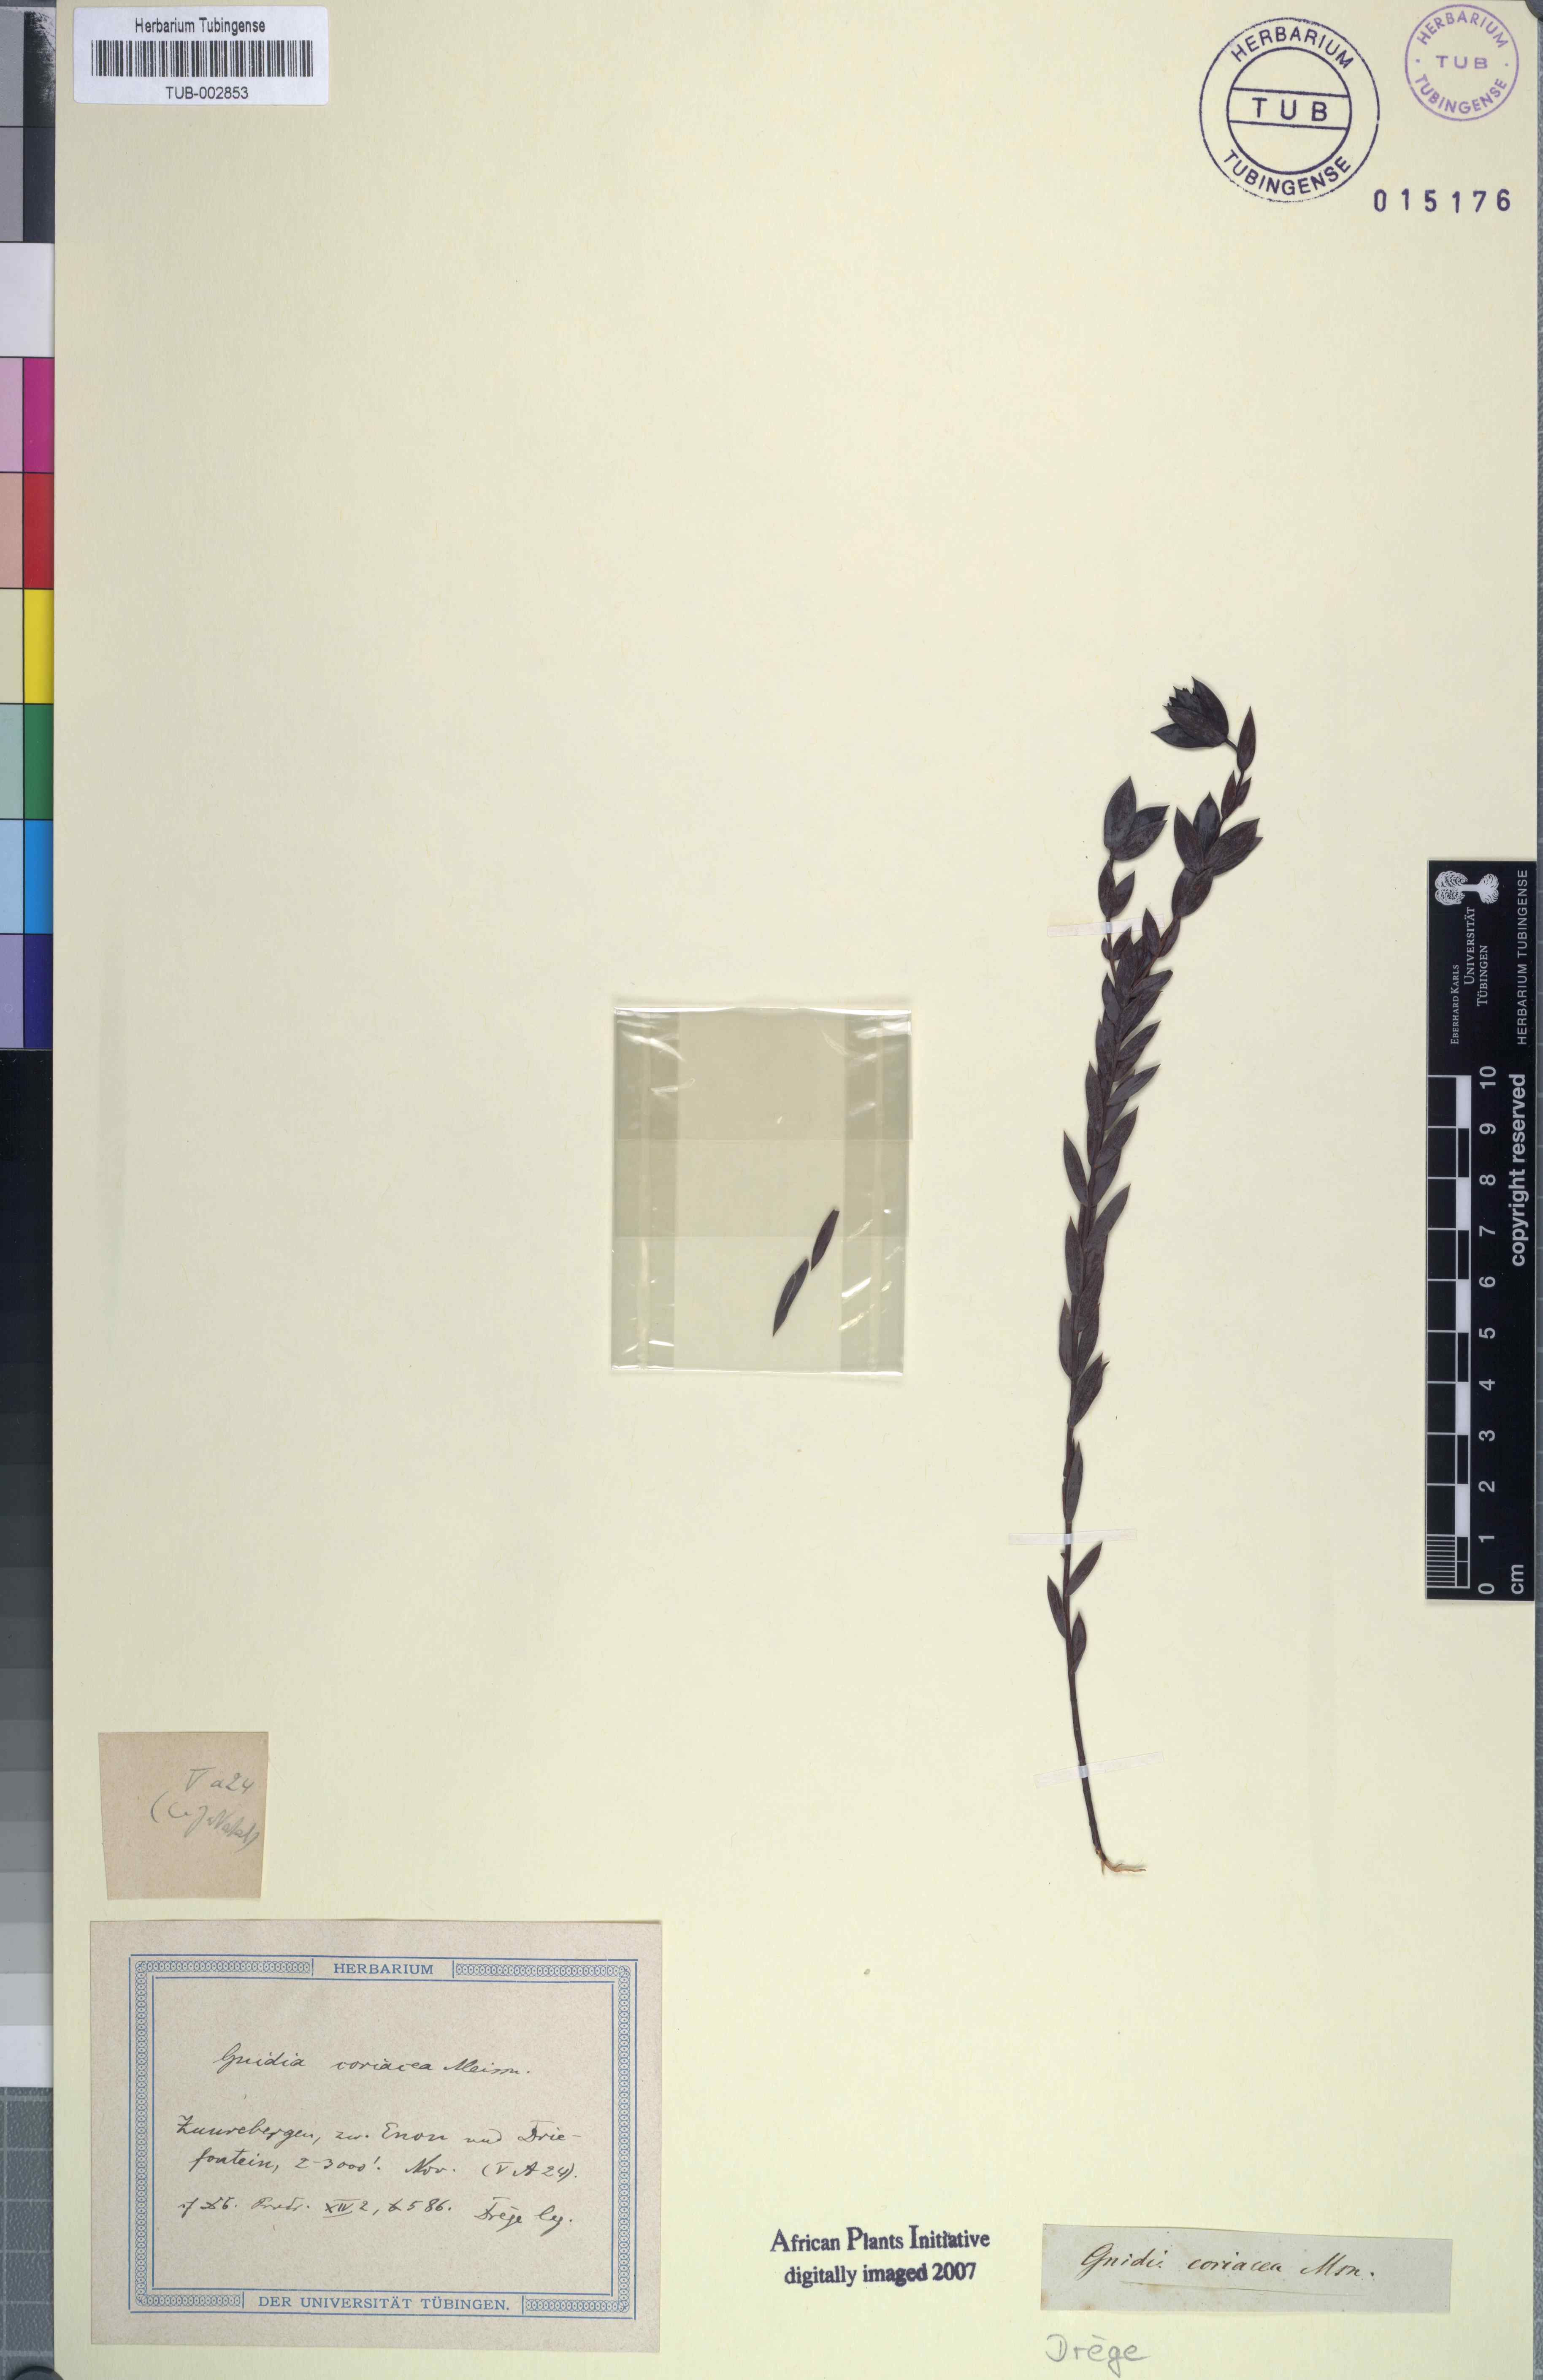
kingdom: Plantae
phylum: Tracheophyta
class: Magnoliopsida
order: Malvales
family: Thymelaeaceae
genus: Gnidia
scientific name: Gnidia coriacea
